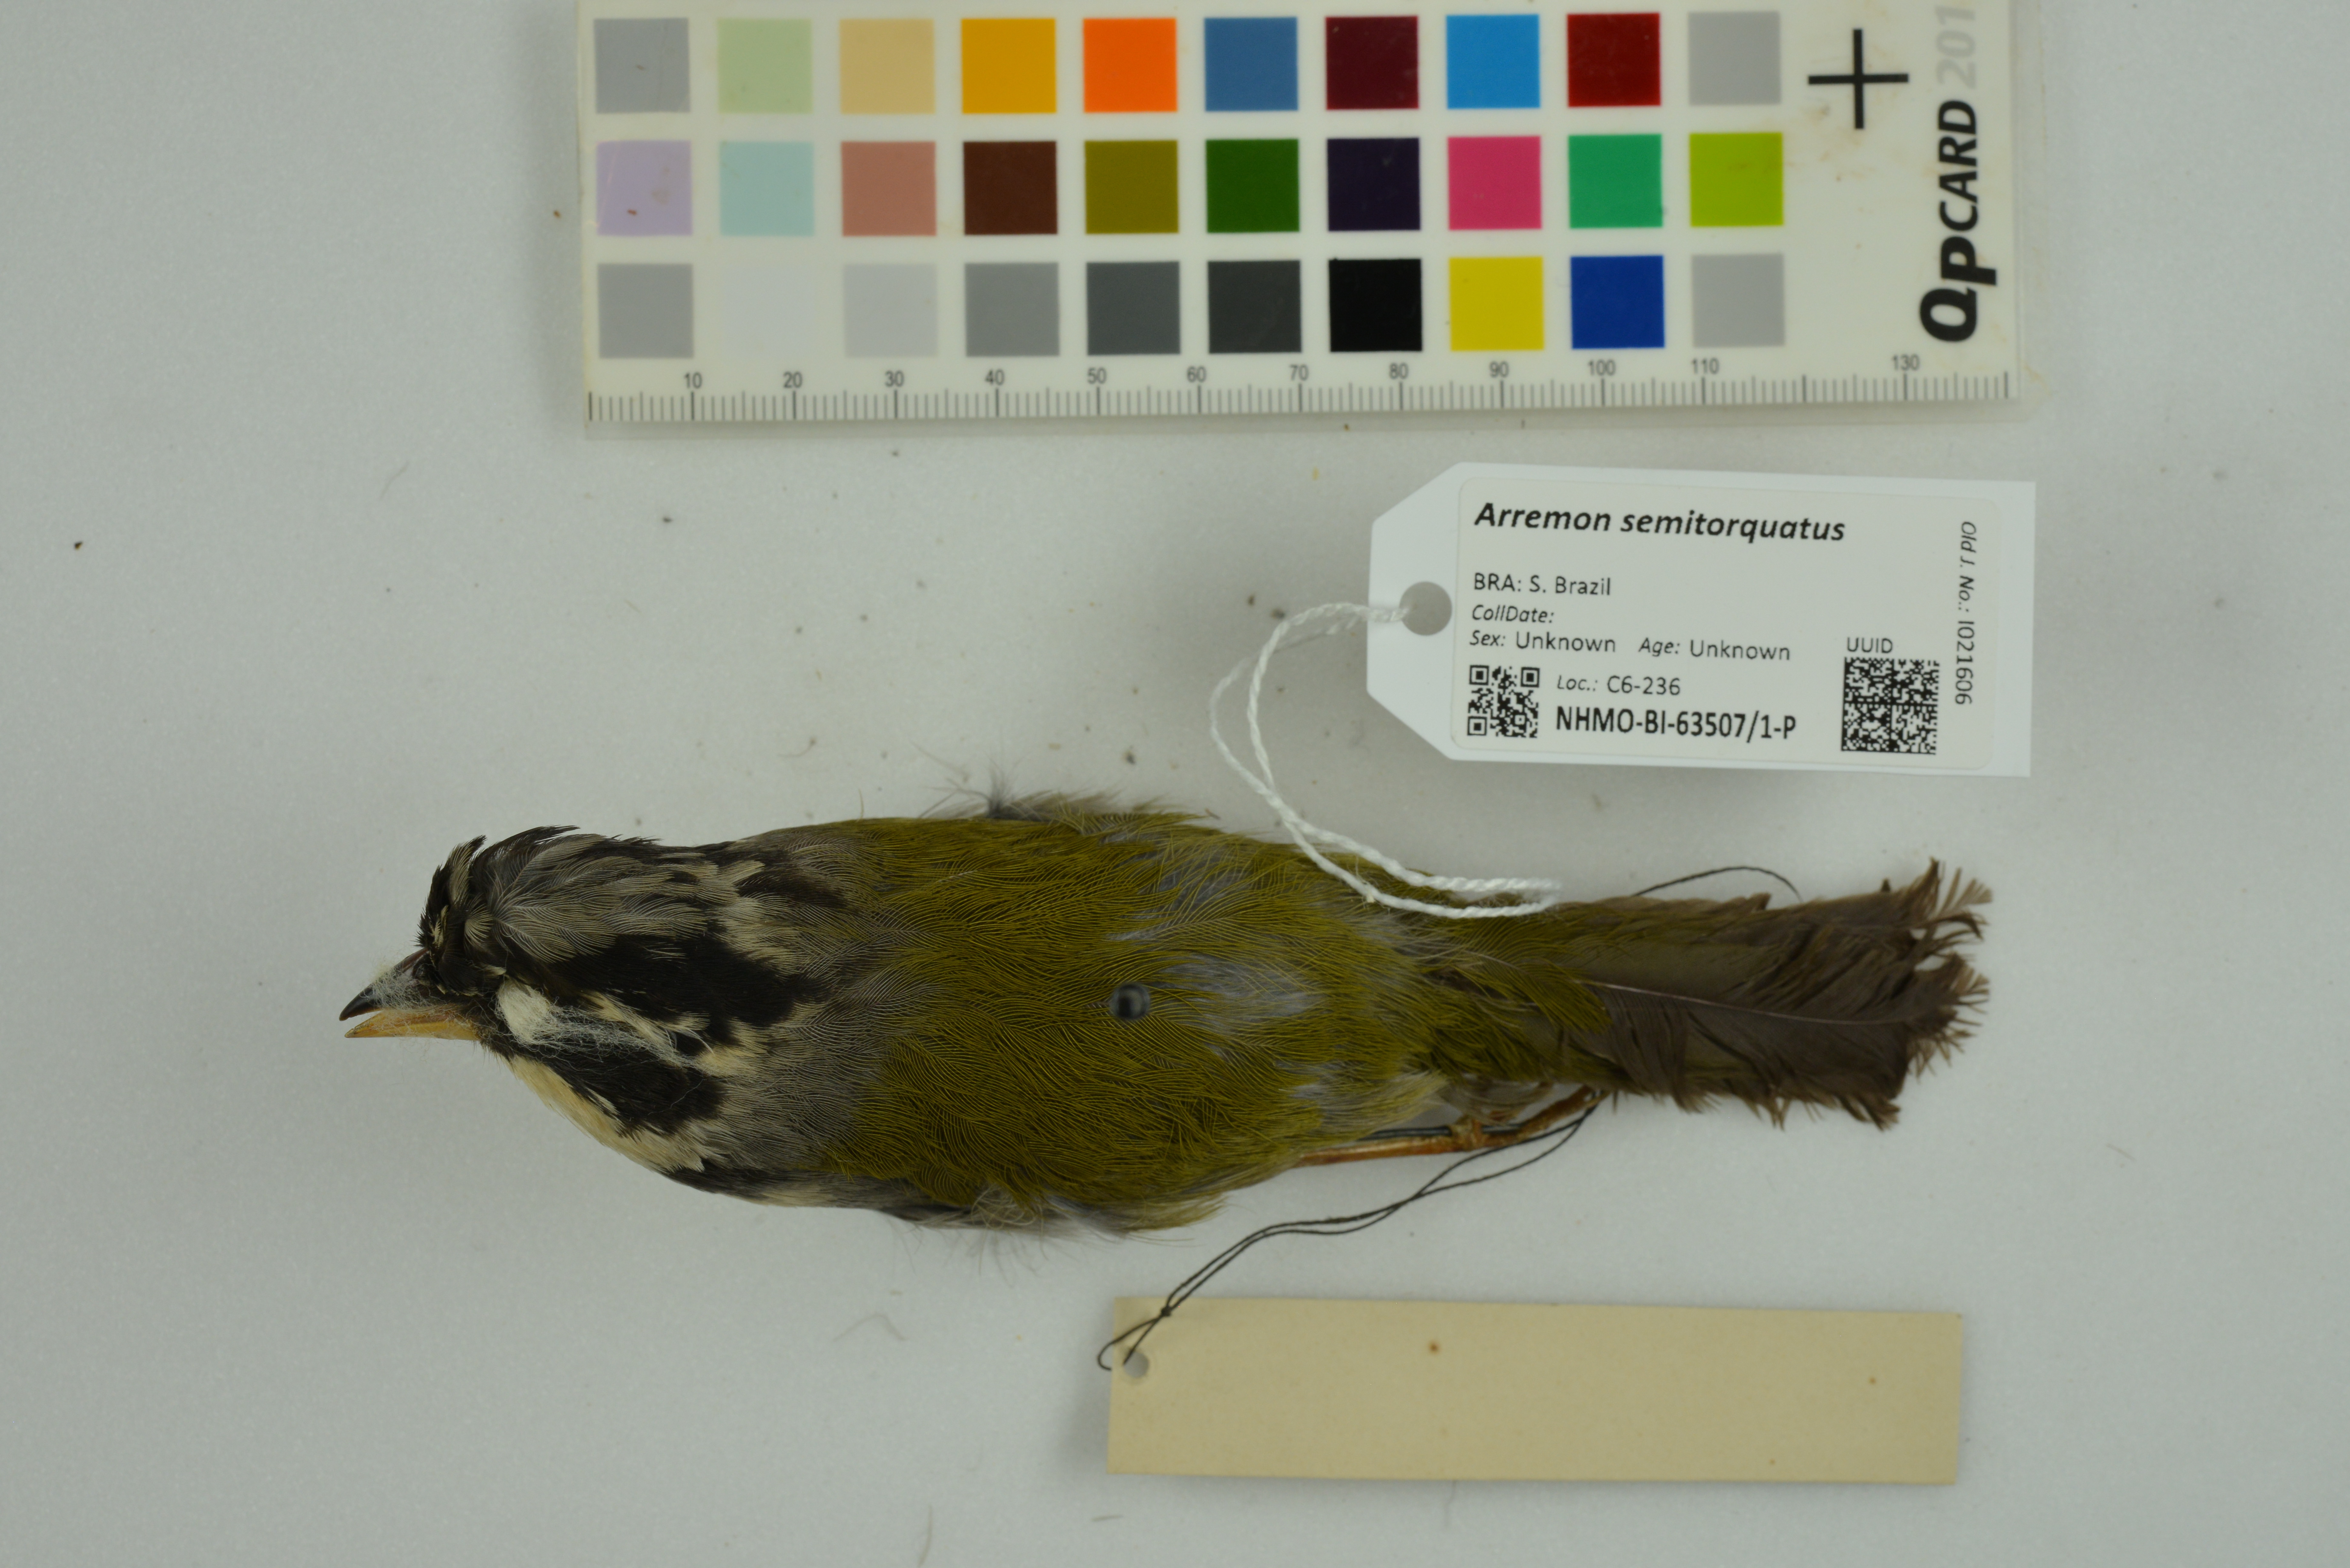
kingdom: Animalia
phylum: Chordata
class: Aves
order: Passeriformes
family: Passerellidae
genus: Arremon
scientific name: Arremon semitorquatus
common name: Half-collared sparrow
